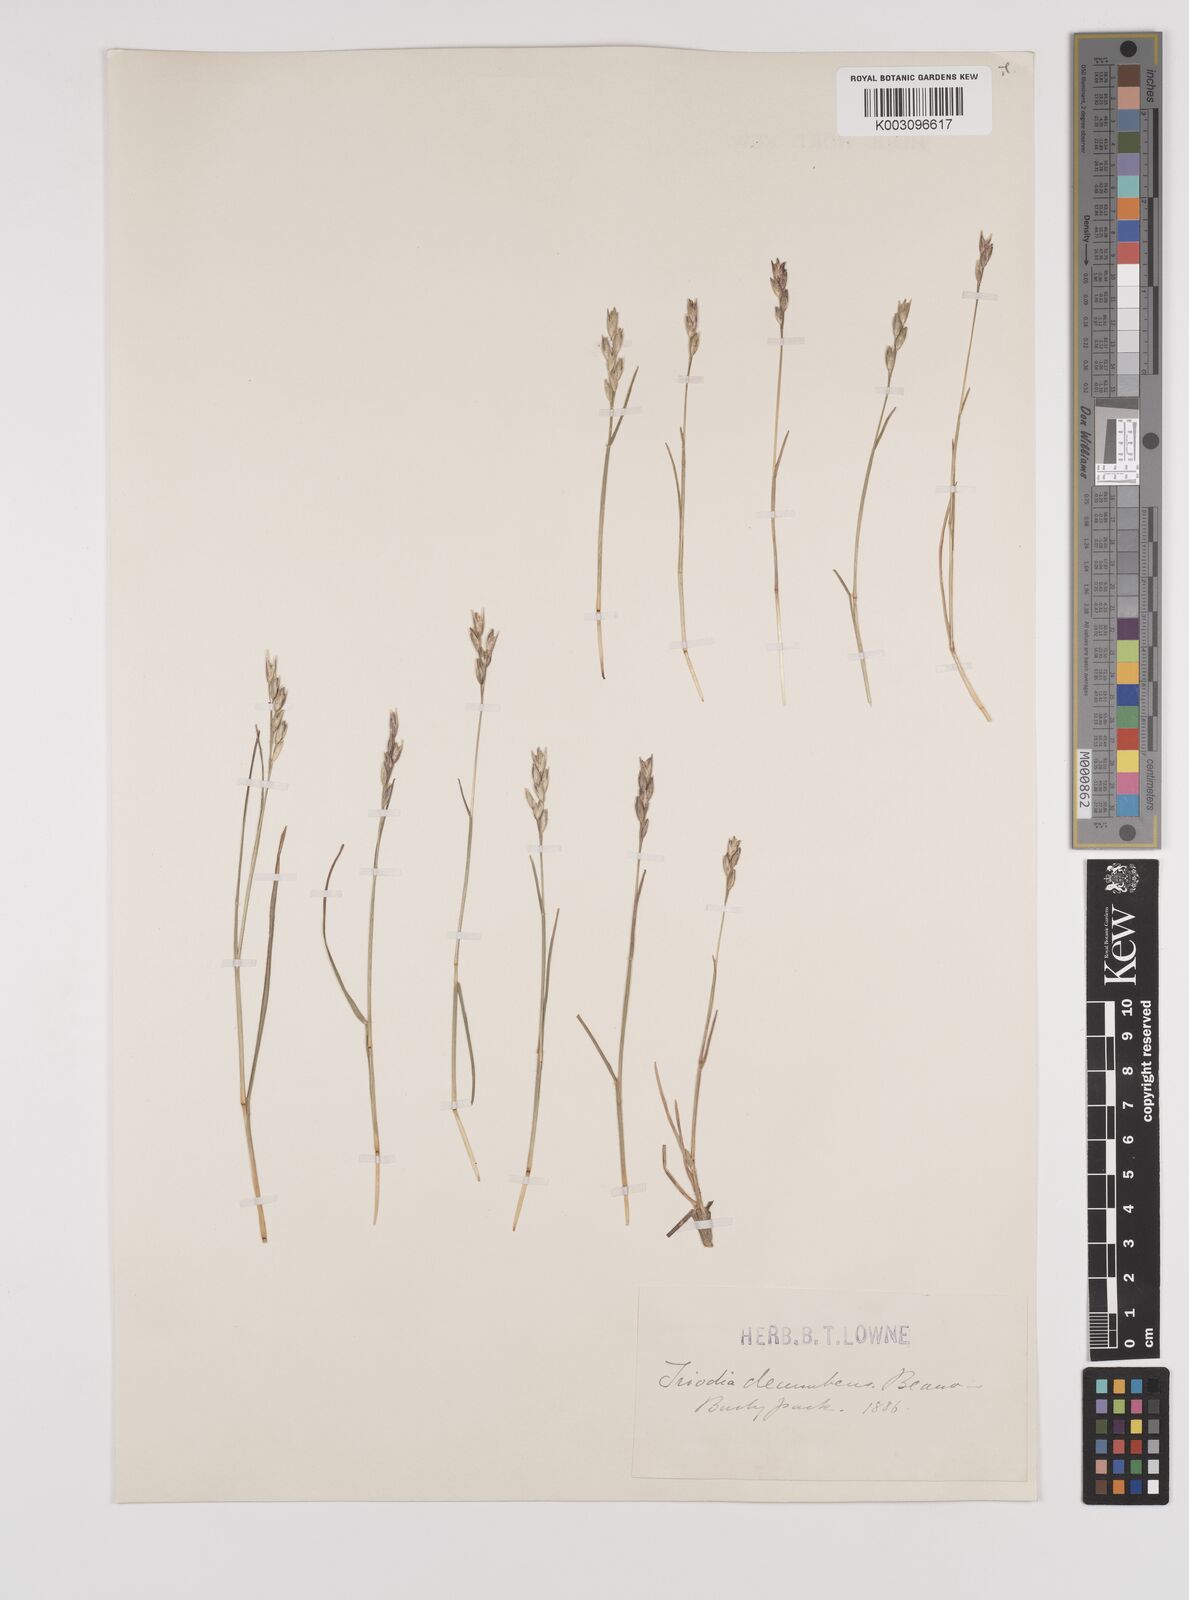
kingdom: Plantae
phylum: Tracheophyta
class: Liliopsida
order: Poales
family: Poaceae
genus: Danthonia
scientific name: Danthonia decumbens
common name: Common heathgrass
